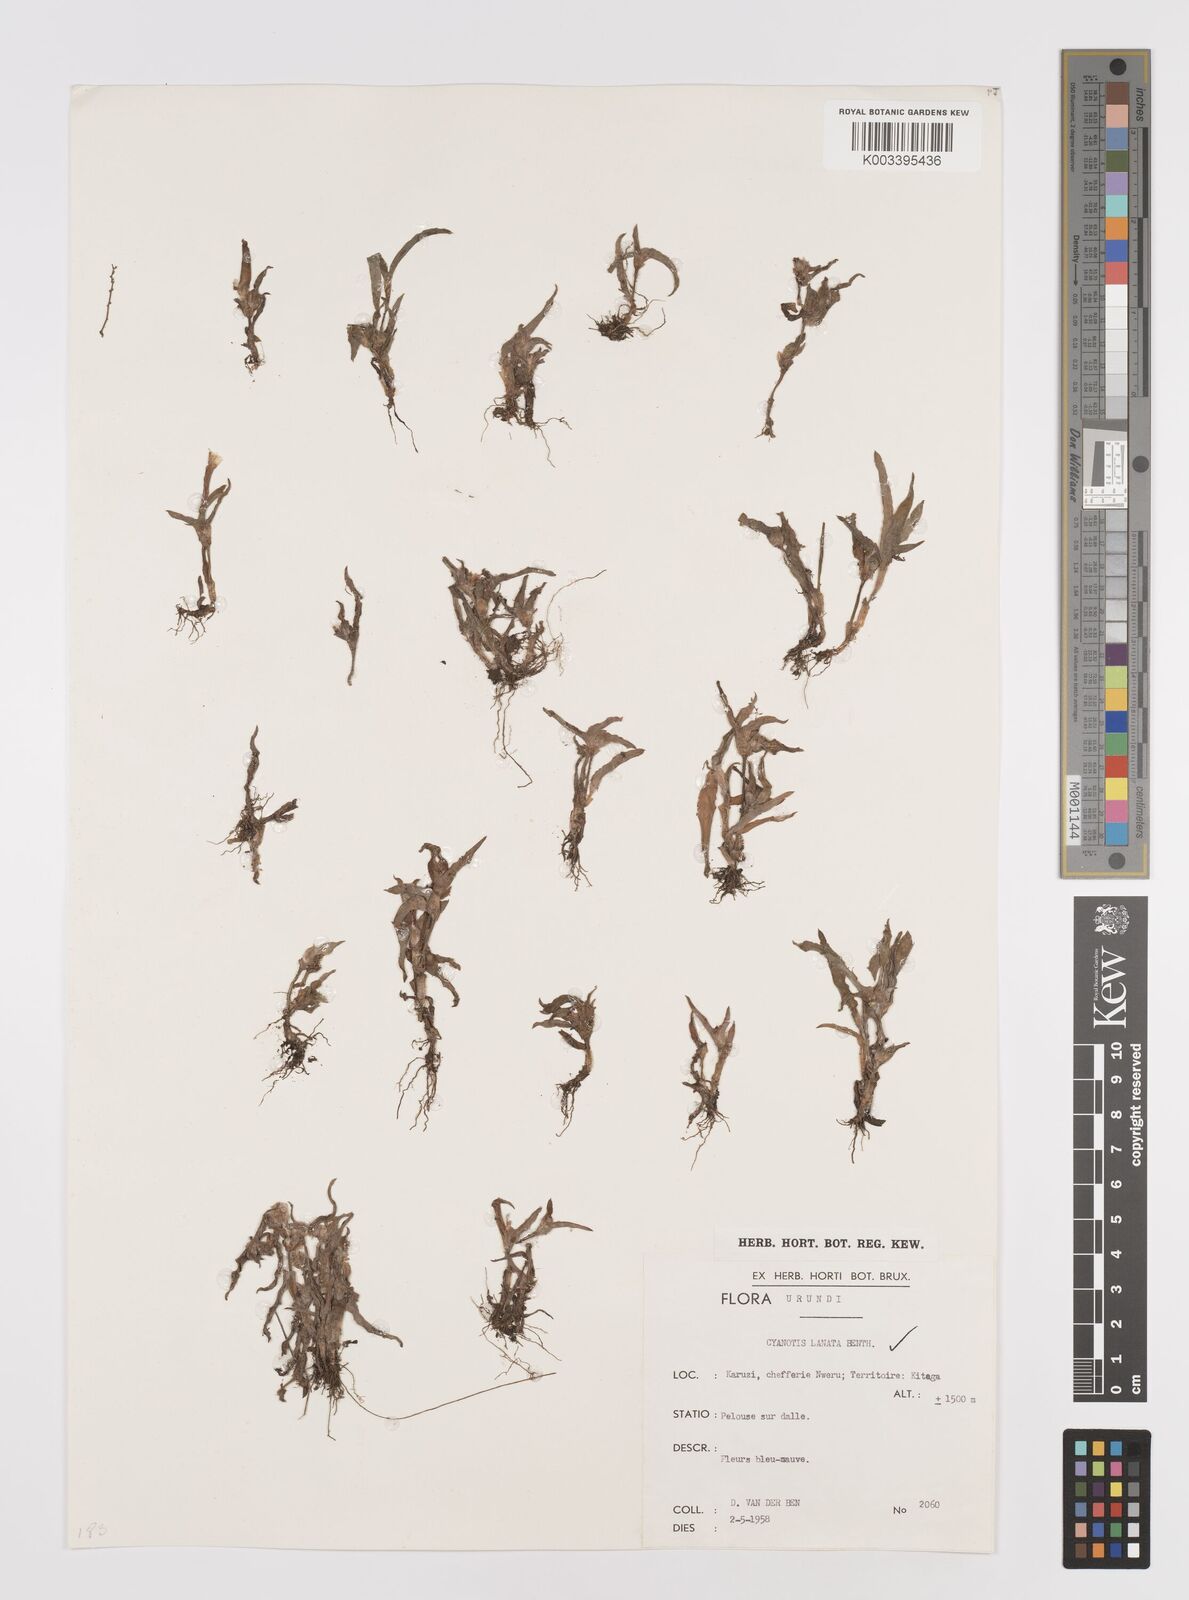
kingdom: Plantae
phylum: Tracheophyta
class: Liliopsida
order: Commelinales
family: Commelinaceae
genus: Cyanotis
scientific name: Cyanotis lanata
